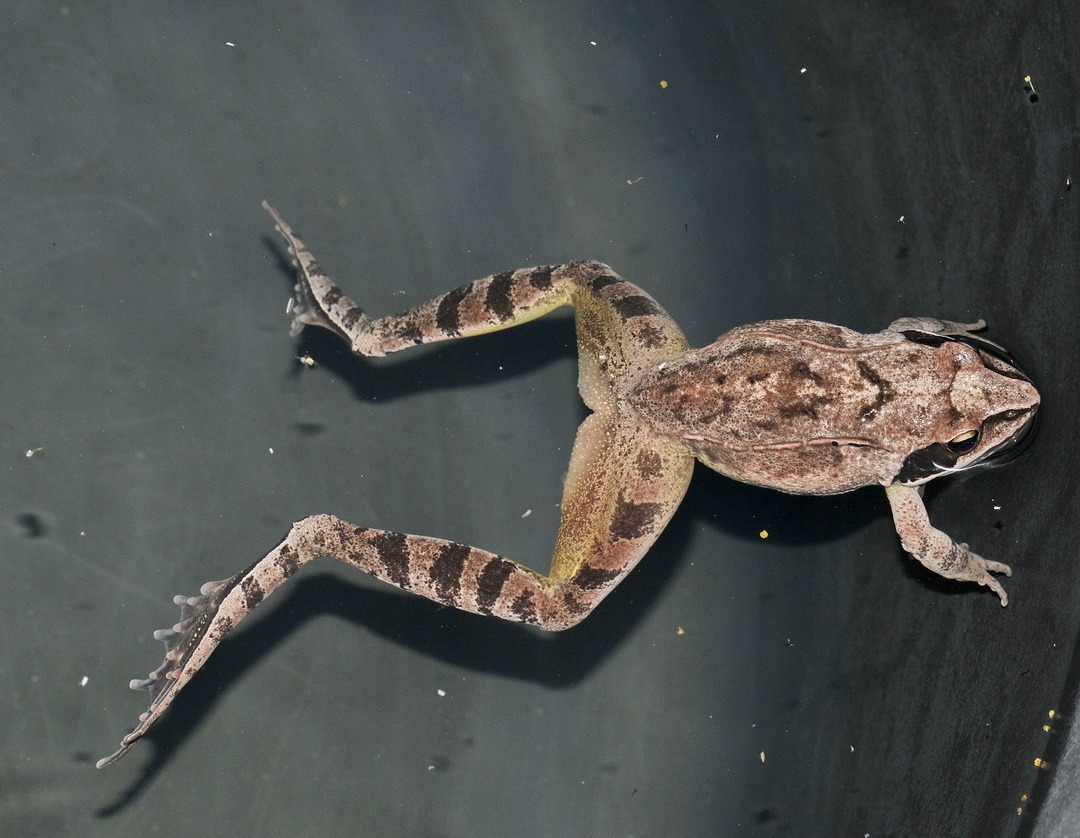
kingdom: Animalia
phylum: Chordata
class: Amphibia
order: Anura
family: Ranidae
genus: Rana
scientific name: Rana dalmatina
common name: Springfrø
